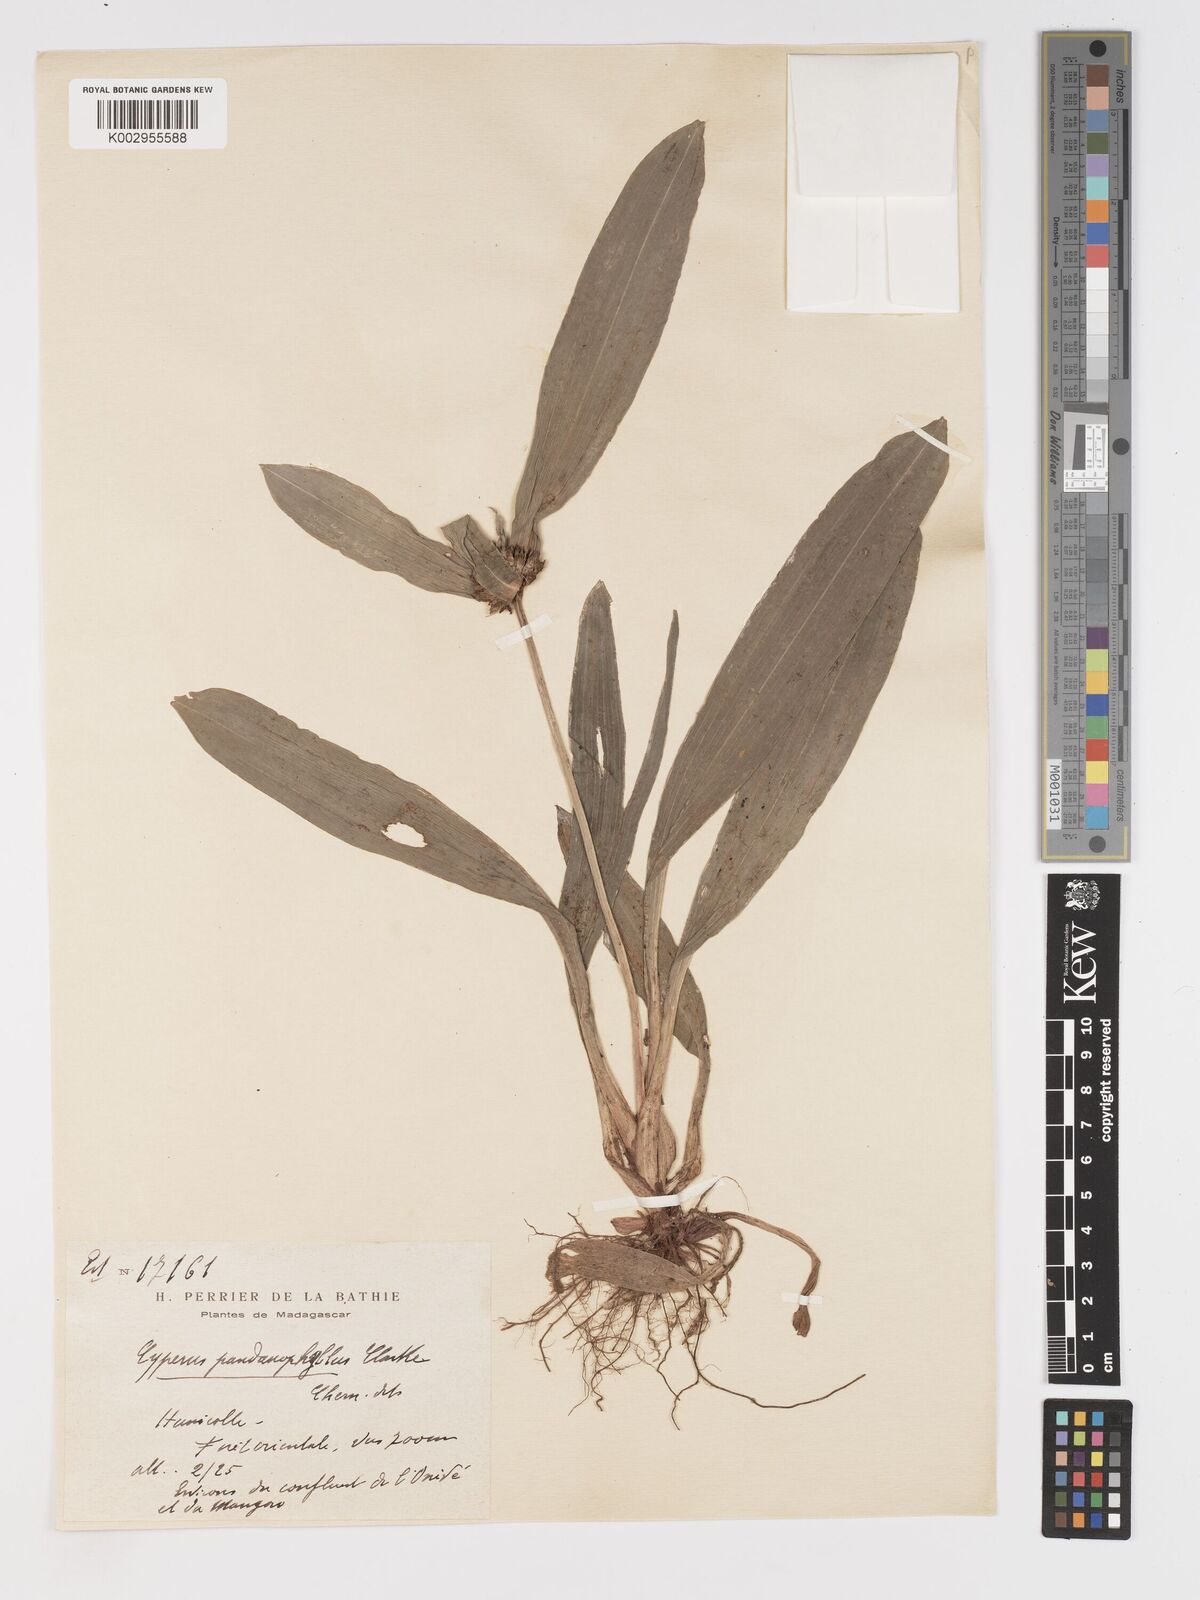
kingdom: Plantae
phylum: Tracheophyta
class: Liliopsida
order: Poales
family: Cyperaceae
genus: Cyperus
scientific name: Cyperus pandanophyllum
